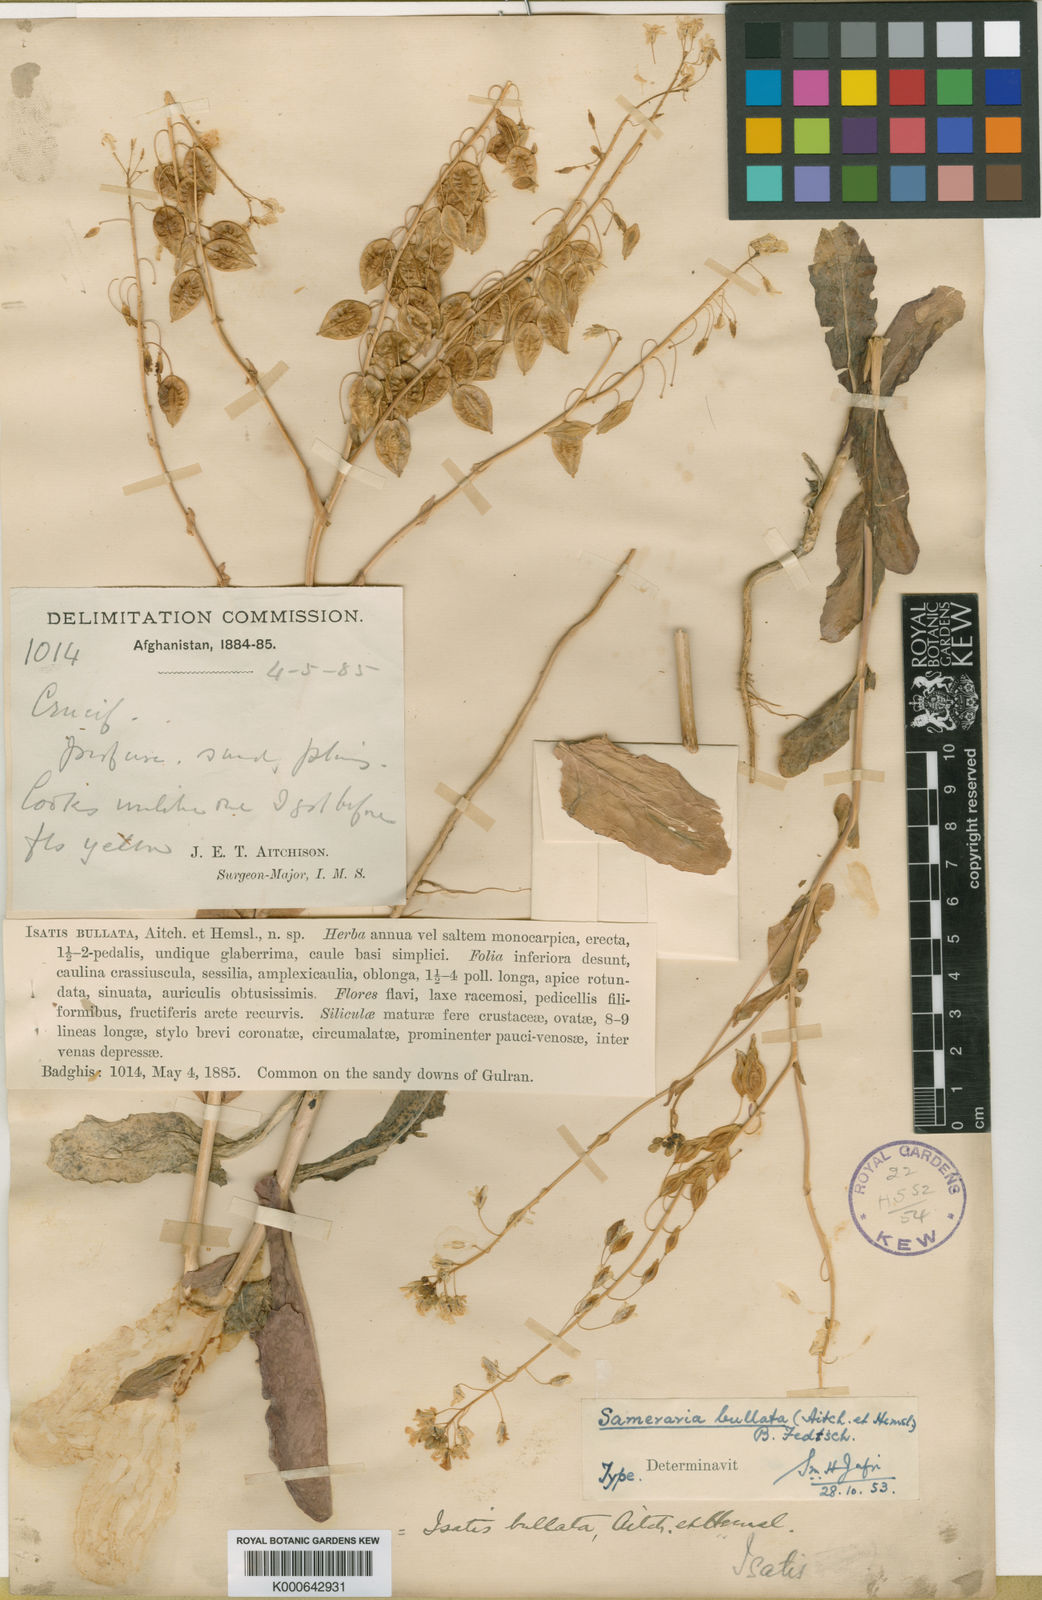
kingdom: Plantae
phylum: Tracheophyta
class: Magnoliopsida
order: Brassicales
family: Brassicaceae
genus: Isatis
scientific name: Isatis bullata
